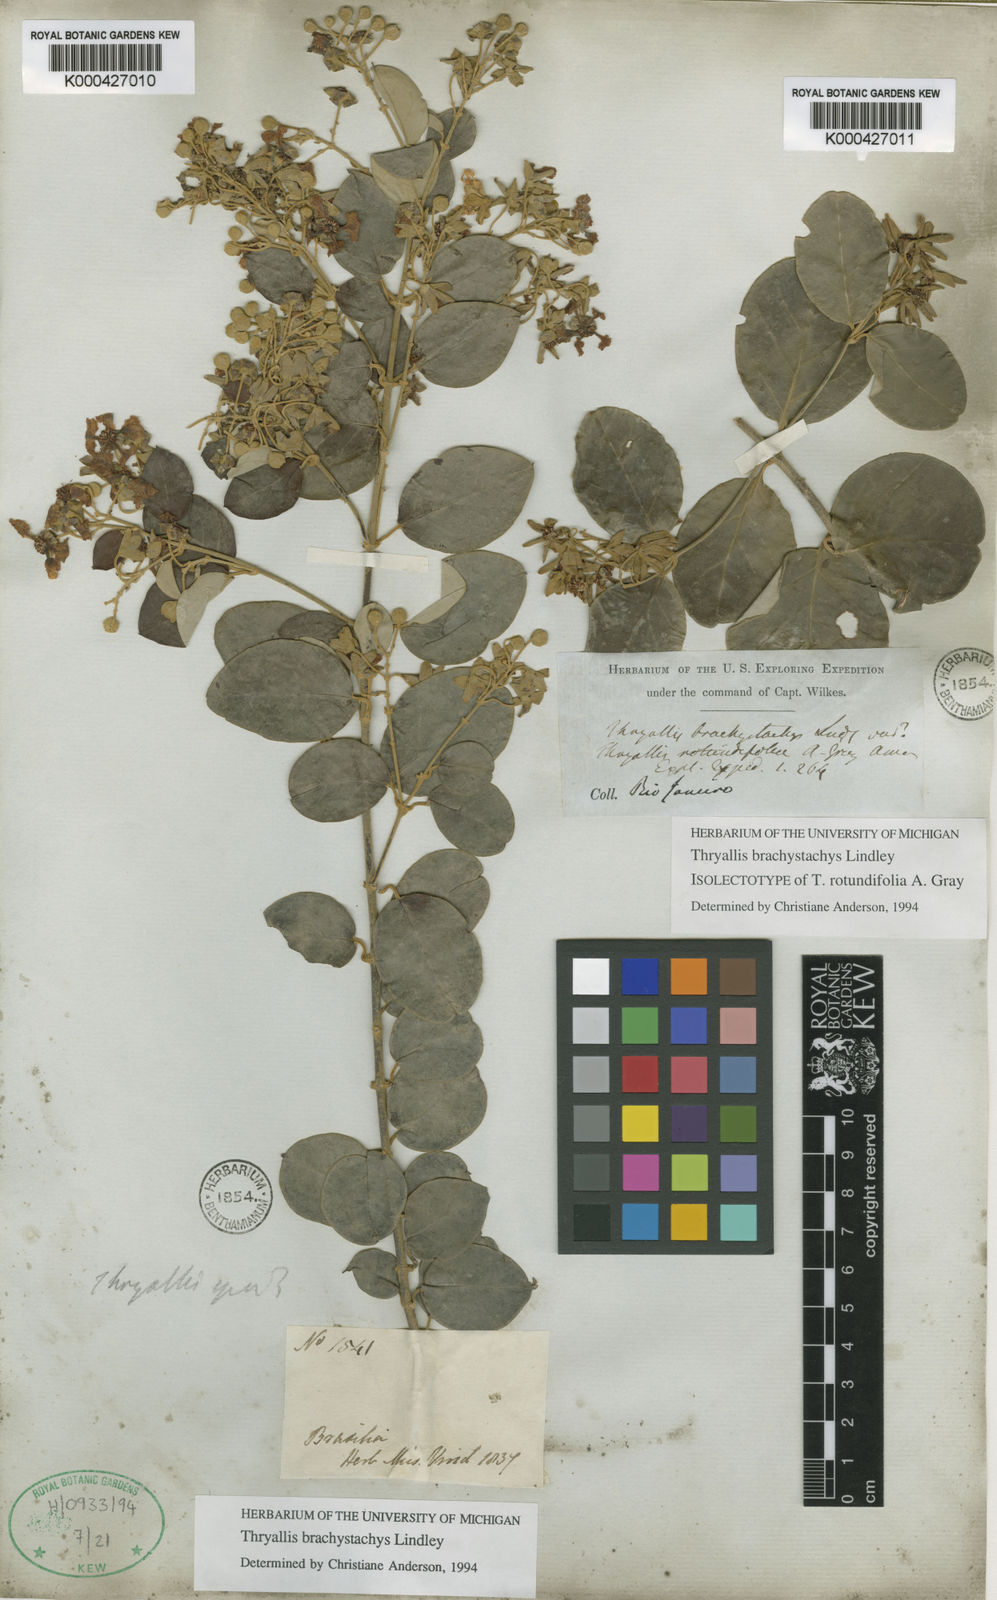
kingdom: Plantae
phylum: Tracheophyta
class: Magnoliopsida
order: Malpighiales
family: Malpighiaceae
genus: Thryallis
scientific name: Thryallis brachystachys
